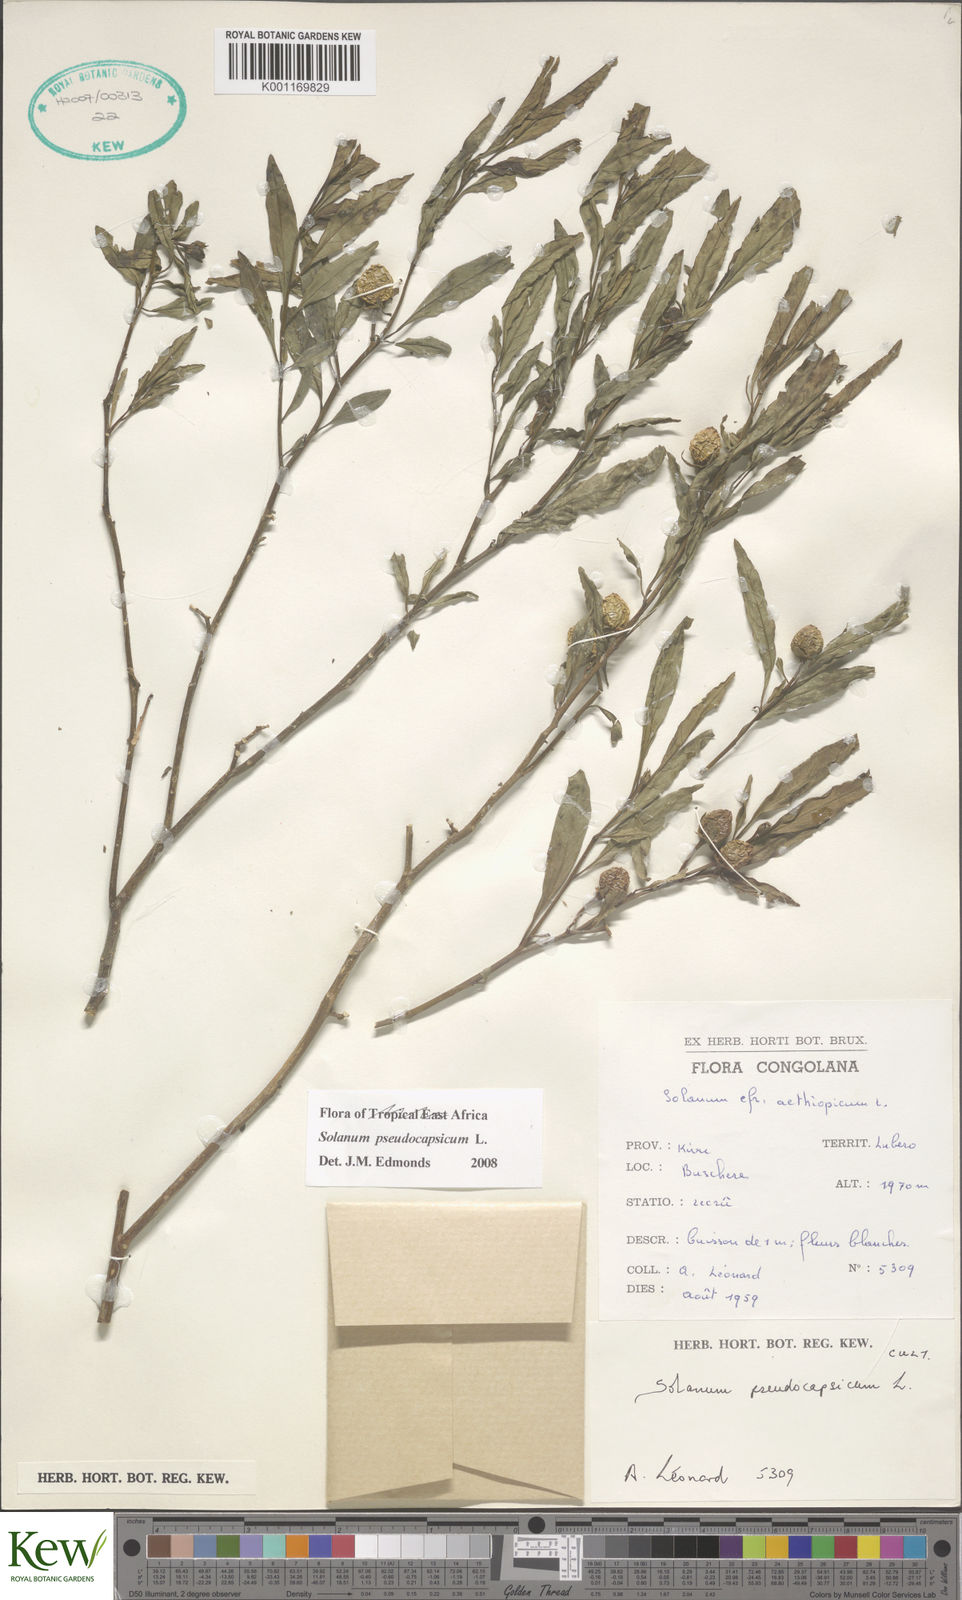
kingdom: Plantae
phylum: Tracheophyta
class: Magnoliopsida
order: Solanales
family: Solanaceae
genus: Solanum
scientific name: Solanum
